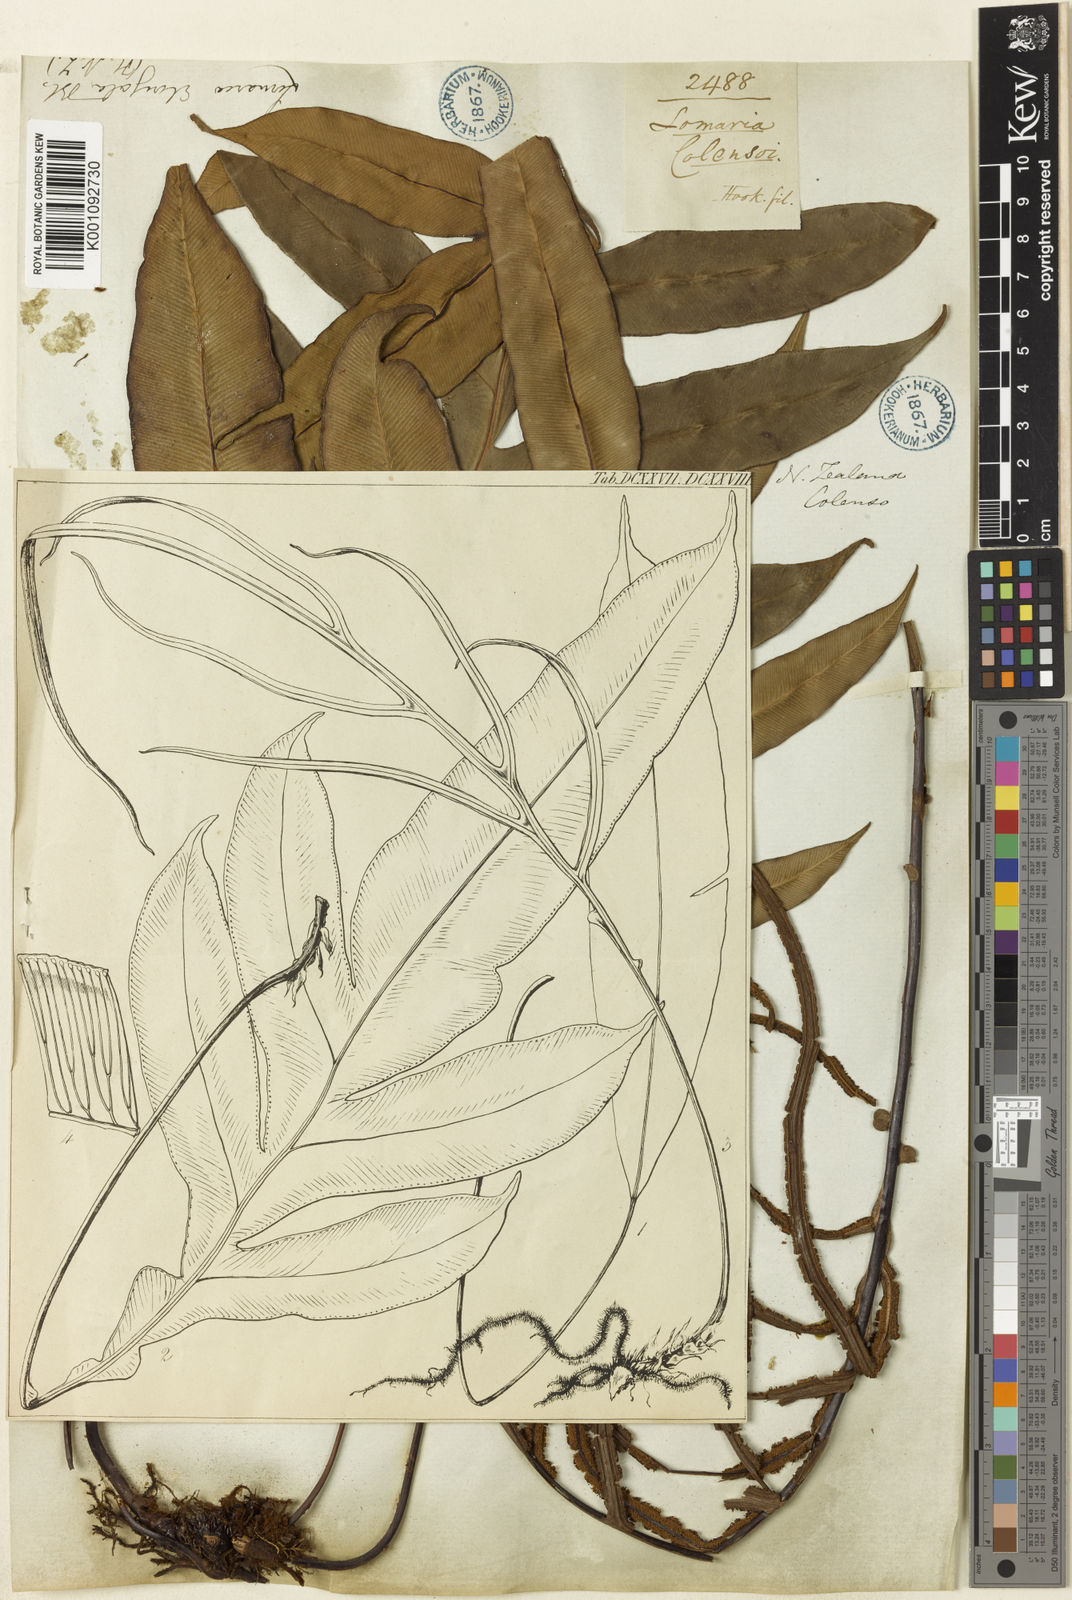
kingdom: Plantae
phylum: Tracheophyta
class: Polypodiopsida
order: Polypodiales
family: Blechnaceae
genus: Austroblechnum
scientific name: Austroblechnum colensoi
